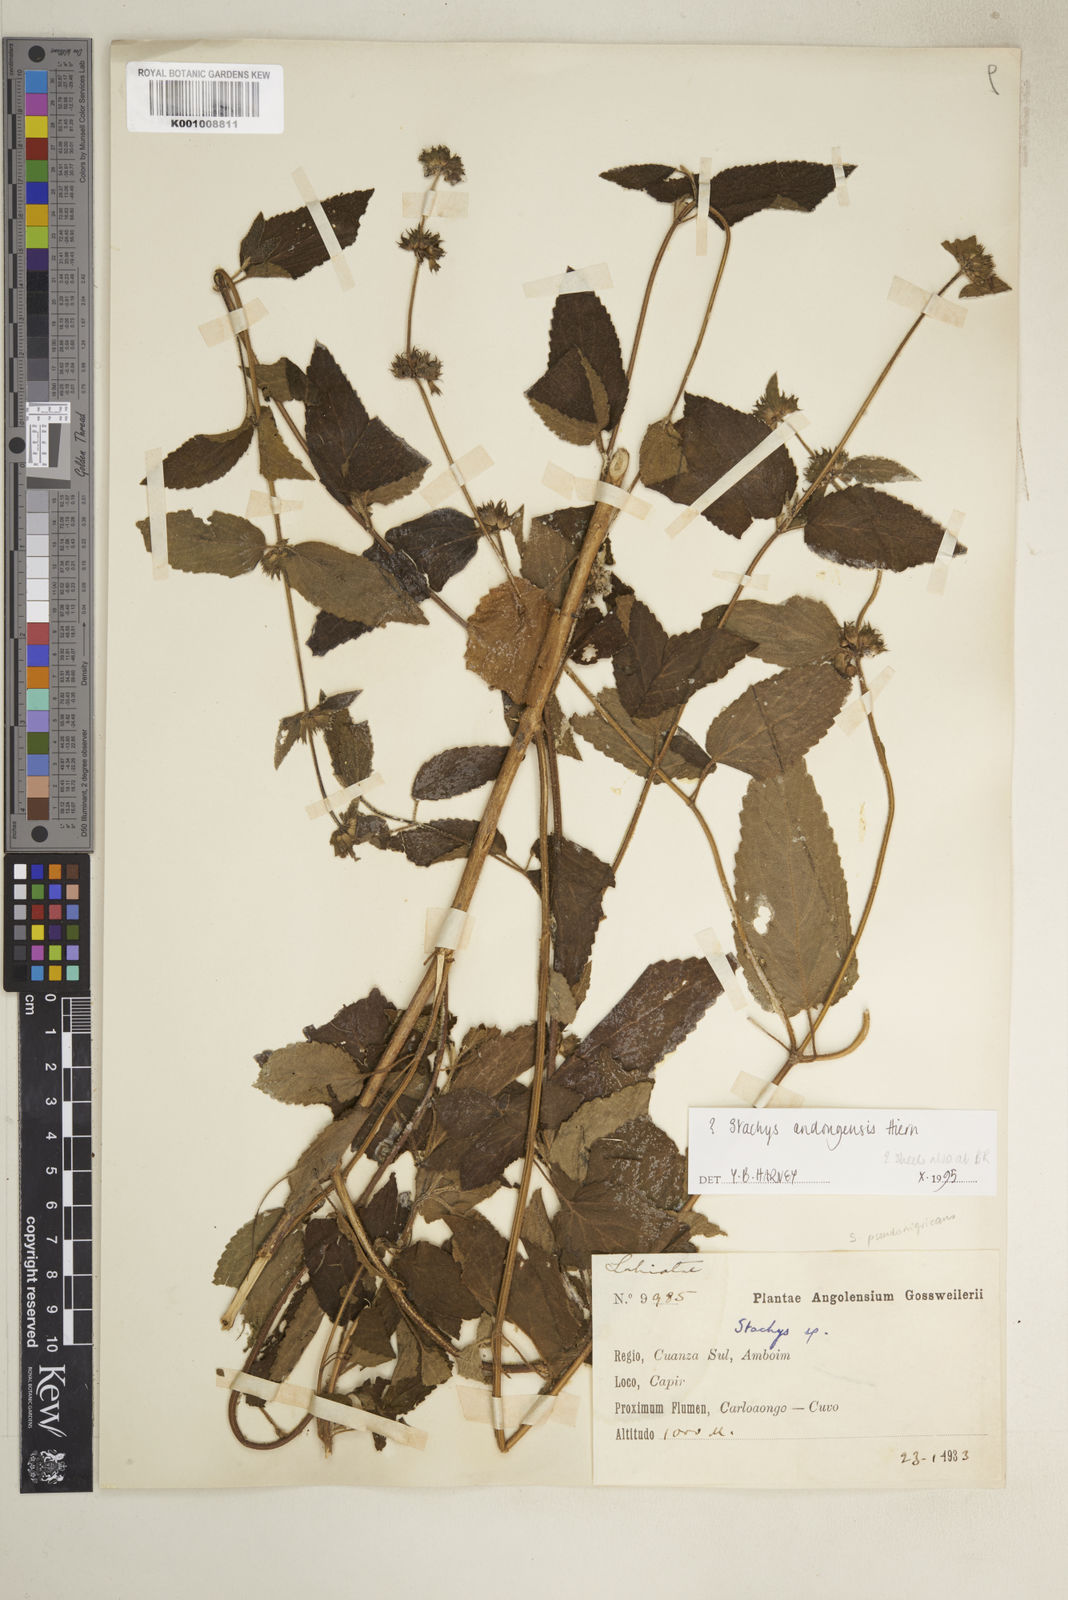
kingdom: Plantae
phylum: Tracheophyta
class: Magnoliopsida
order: Lamiales
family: Lamiaceae
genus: Stachys
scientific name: Stachys
